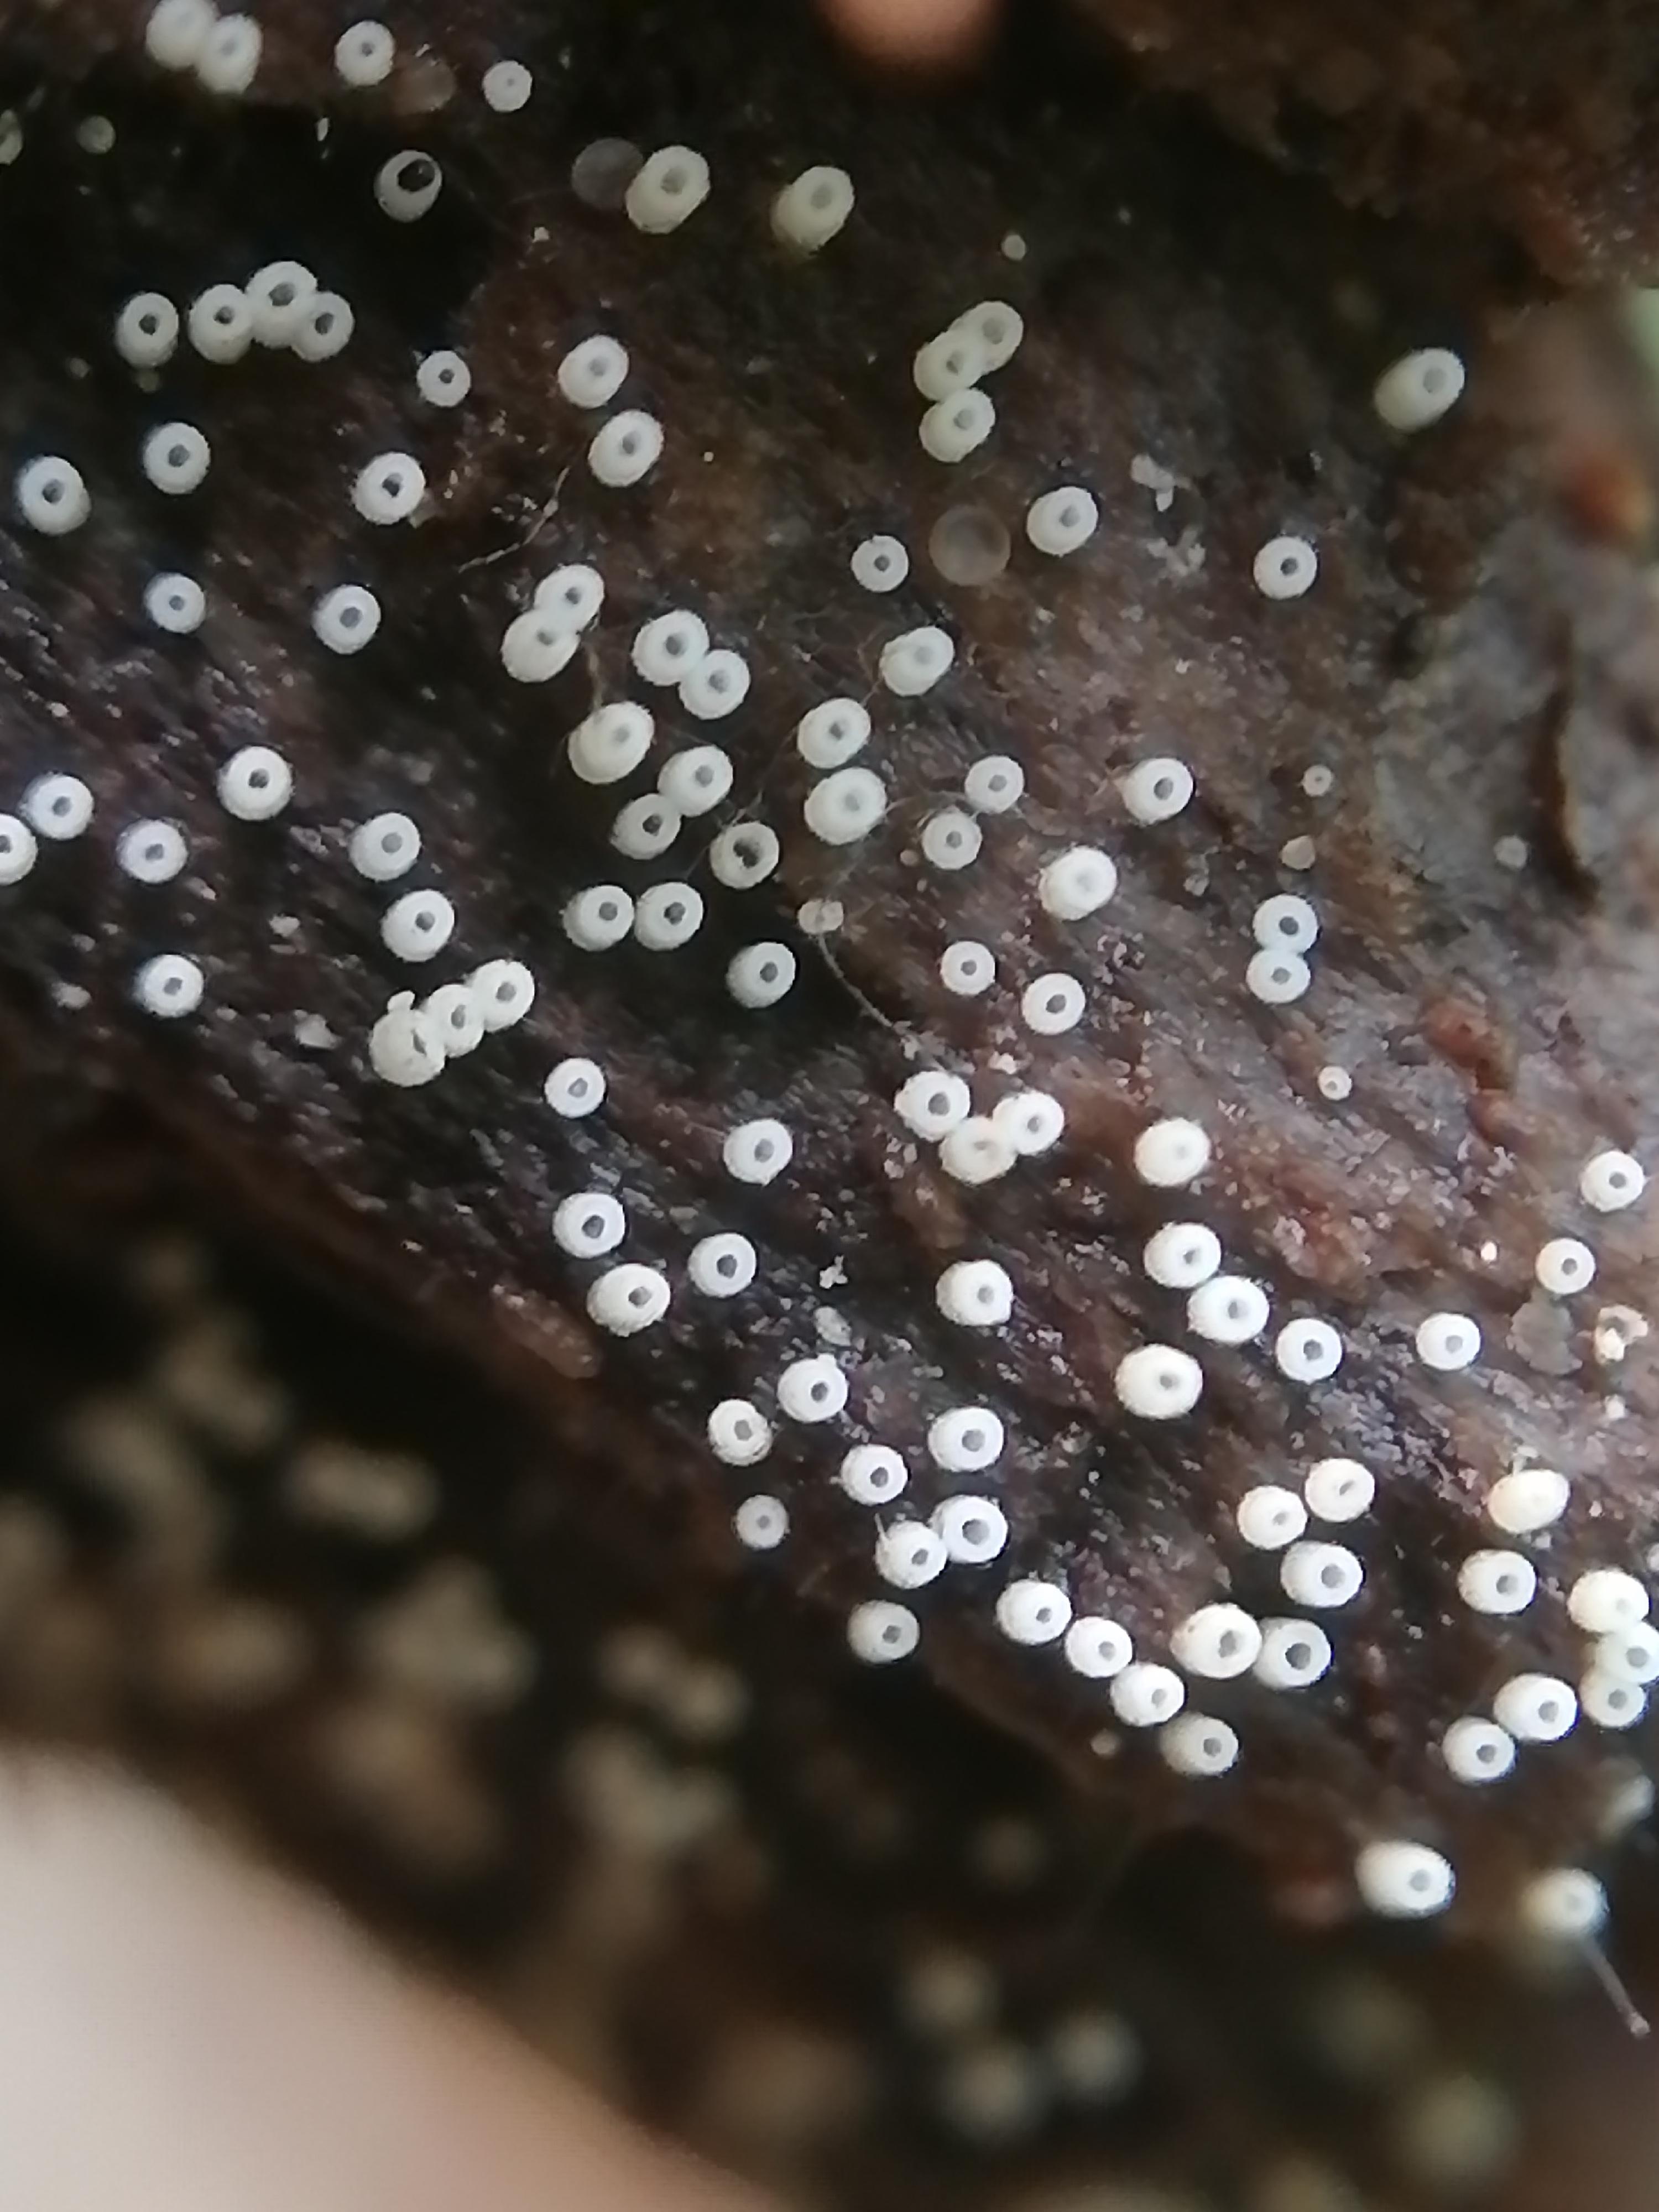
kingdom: Fungi
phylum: Basidiomycota
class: Agaricomycetes
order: Agaricales
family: Marasmiaceae
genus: Henningsomyces
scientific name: Henningsomyces candidus
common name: glat hængerør
